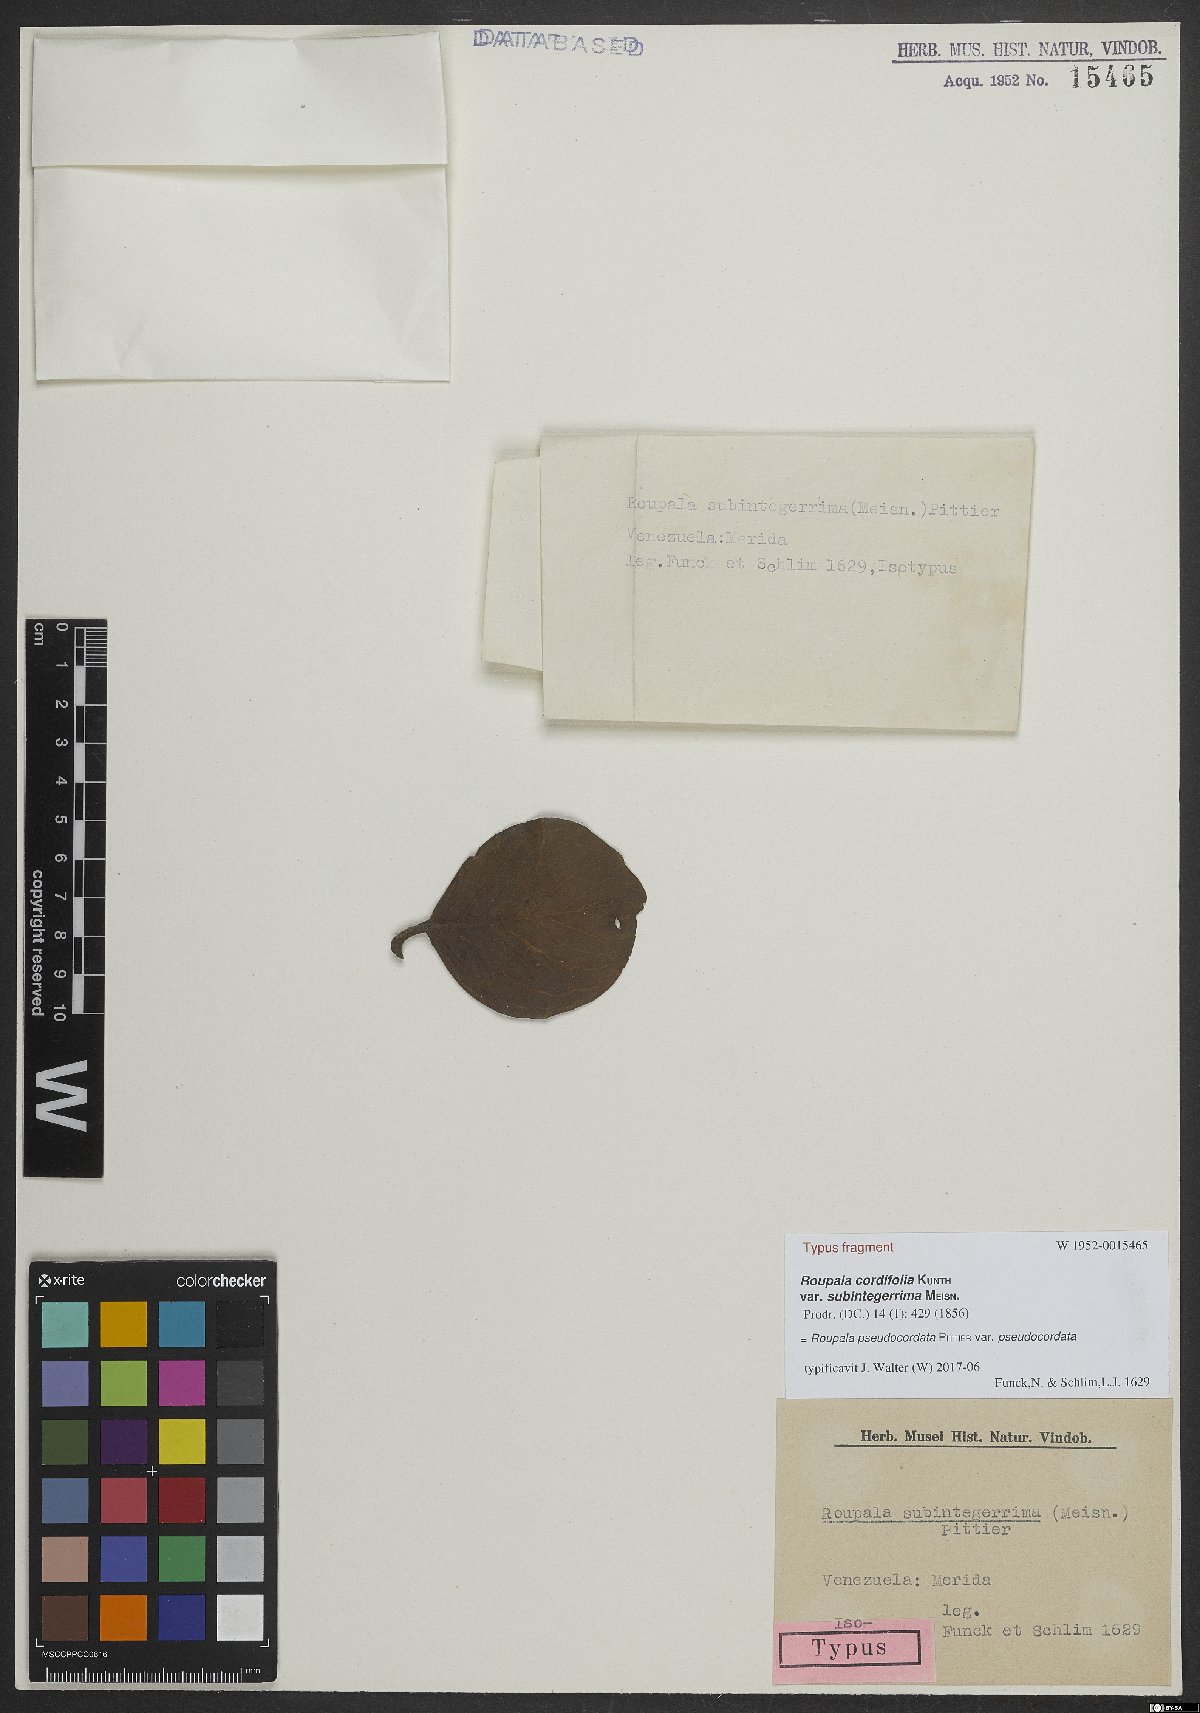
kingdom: Plantae
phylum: Tracheophyta
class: Magnoliopsida
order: Proteales
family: Proteaceae
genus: Roupala
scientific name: Roupala pseudocordata
